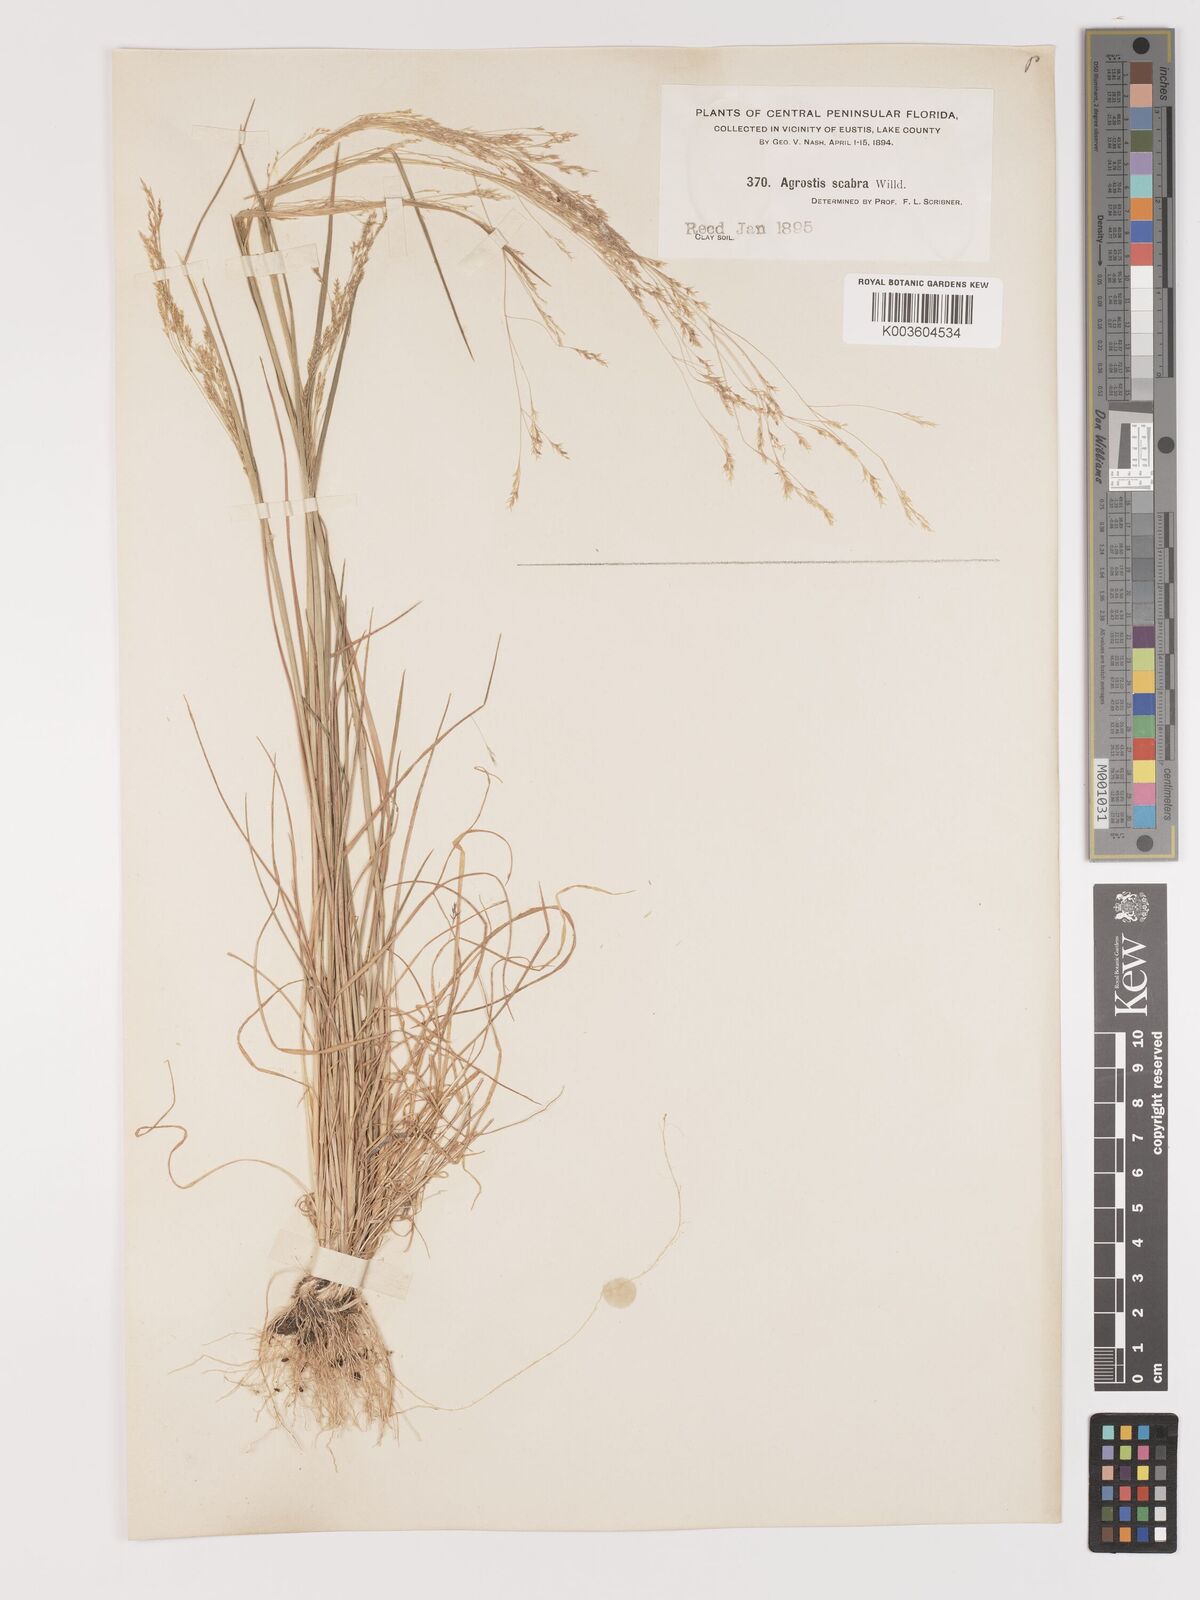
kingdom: Plantae
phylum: Tracheophyta
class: Liliopsida
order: Poales
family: Poaceae
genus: Agrostis
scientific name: Agrostis hyemalis
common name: Small bent
